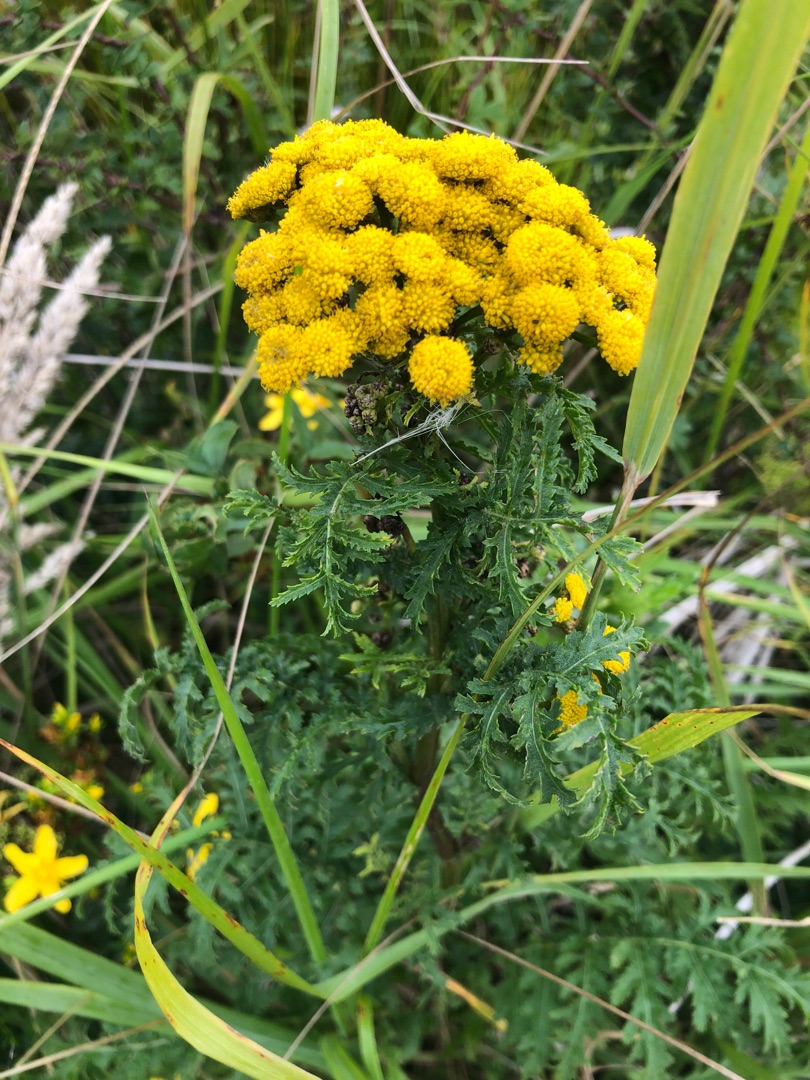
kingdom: Plantae
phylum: Tracheophyta
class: Magnoliopsida
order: Asterales
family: Asteraceae
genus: Tanacetum
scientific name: Tanacetum vulgare
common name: Rejnfan
